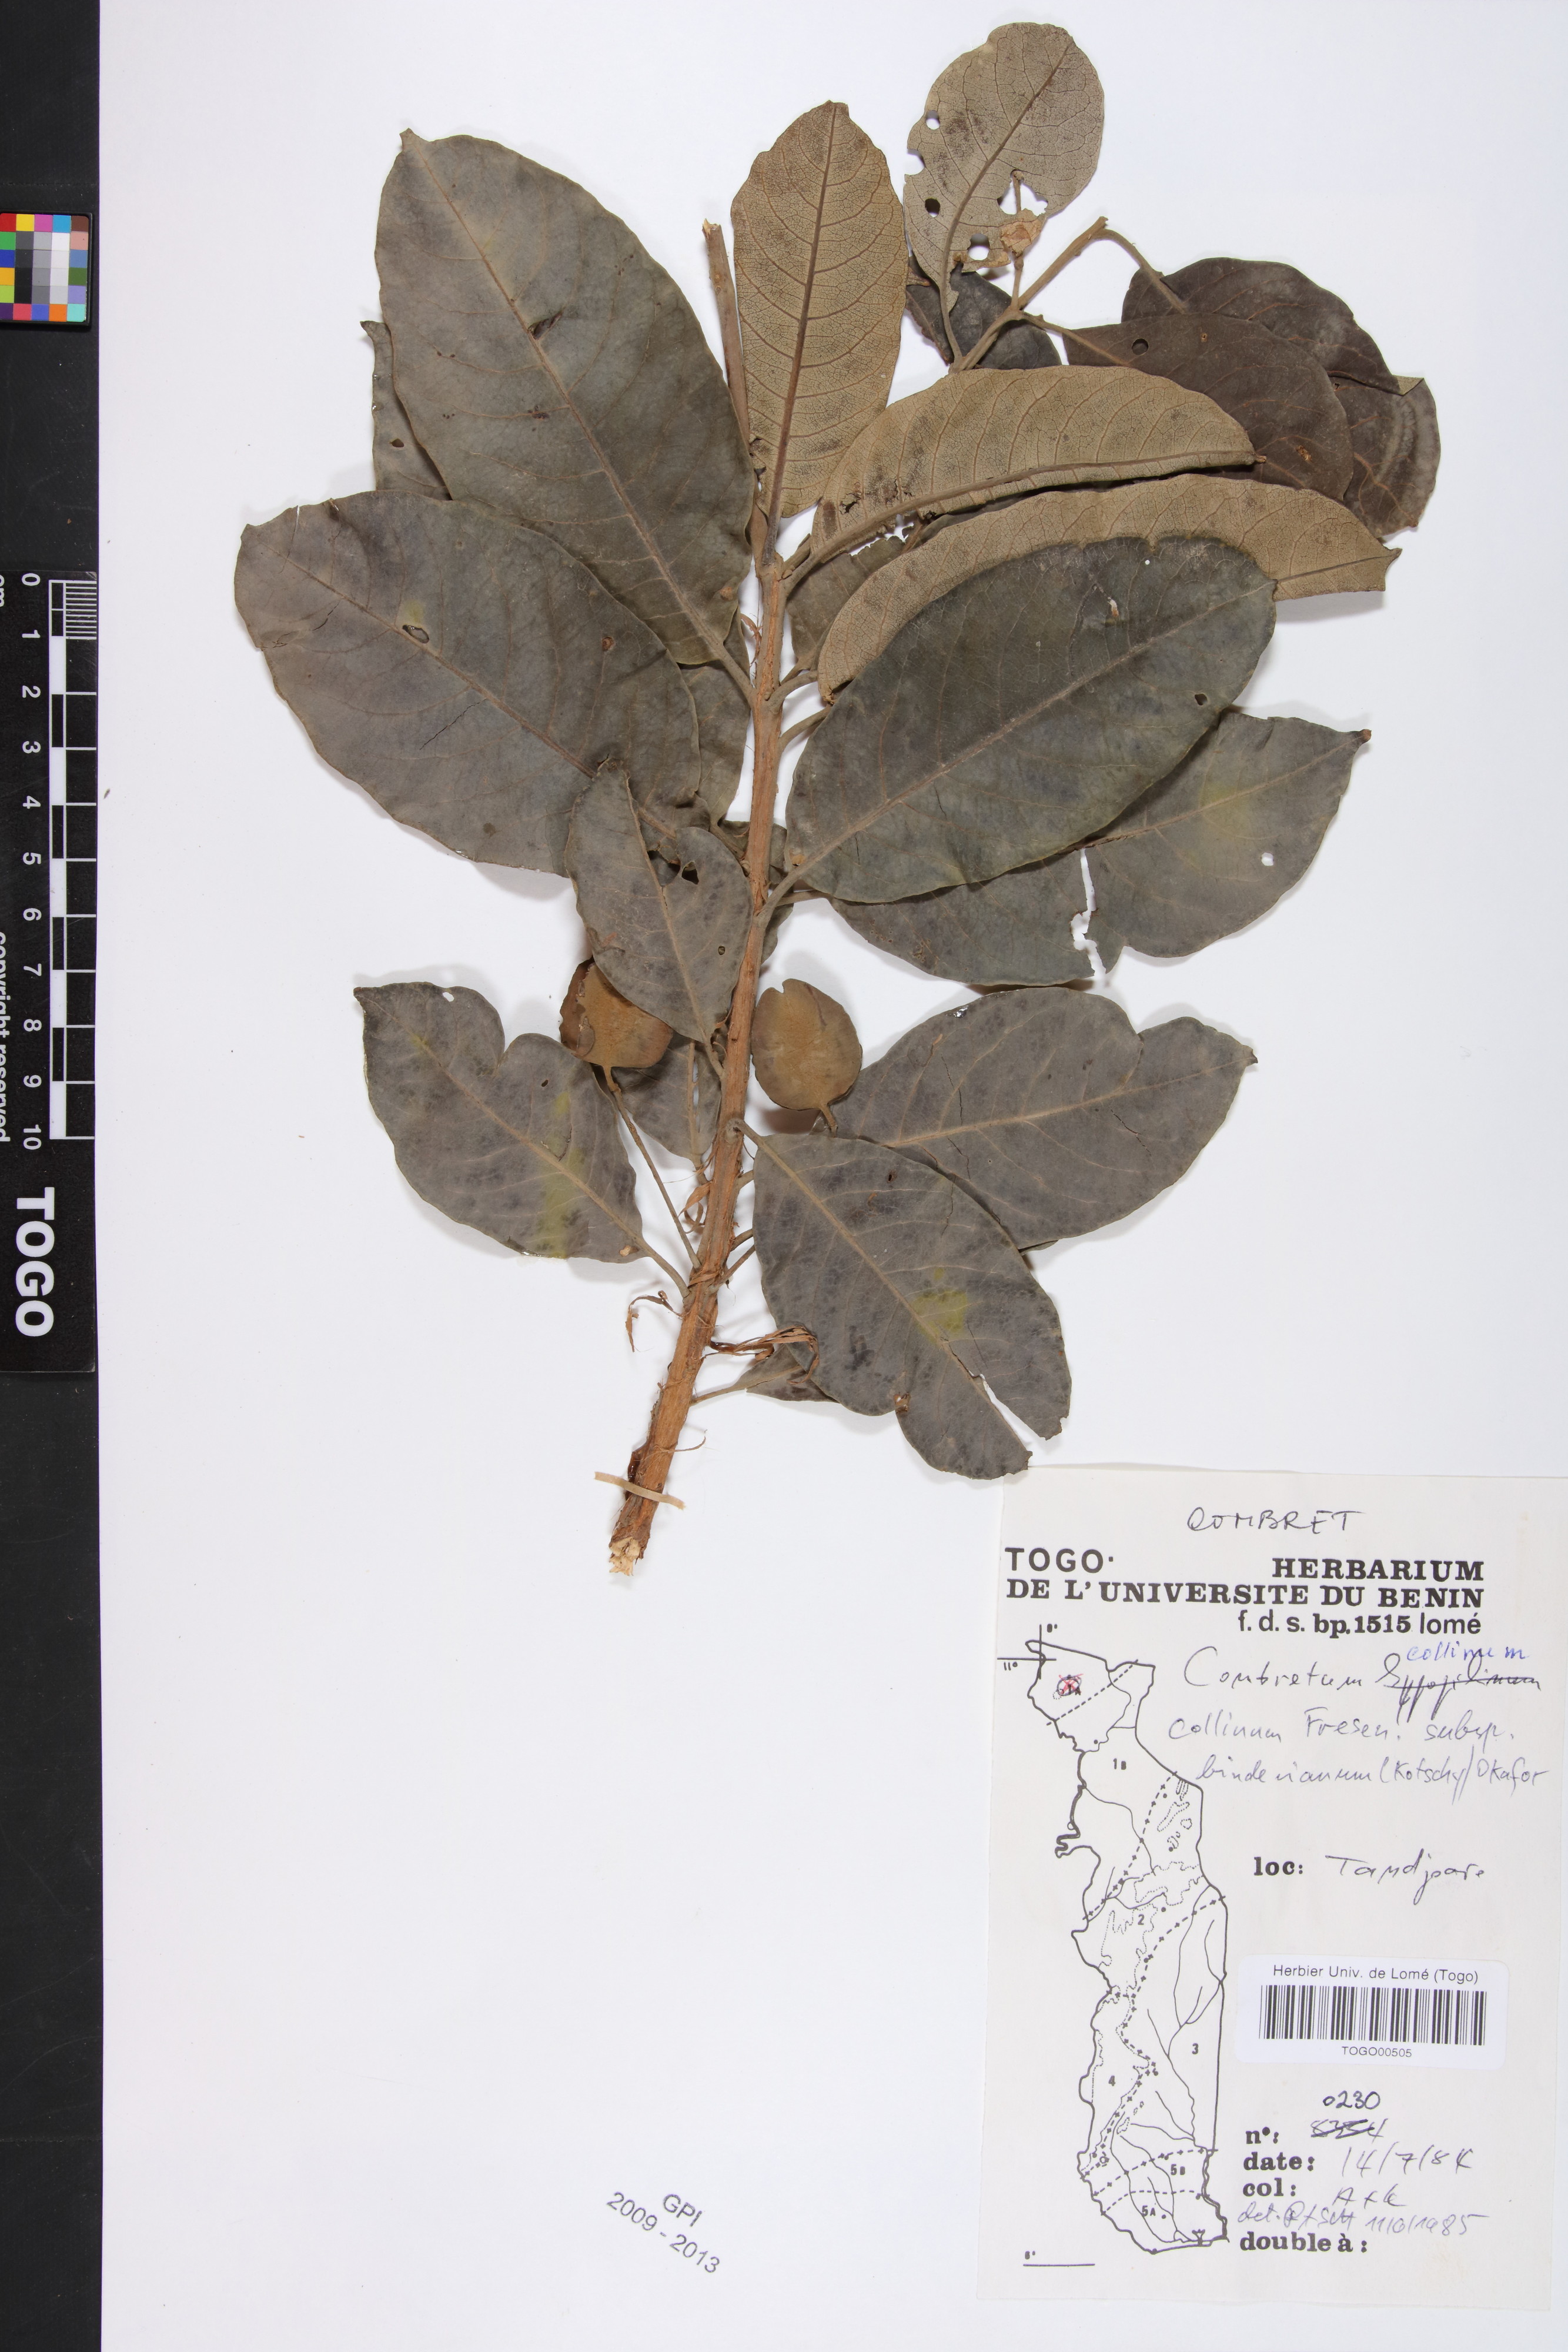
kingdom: Plantae
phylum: Tracheophyta
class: Magnoliopsida
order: Myrtales
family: Combretaceae
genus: Combretum
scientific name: Combretum collinum
